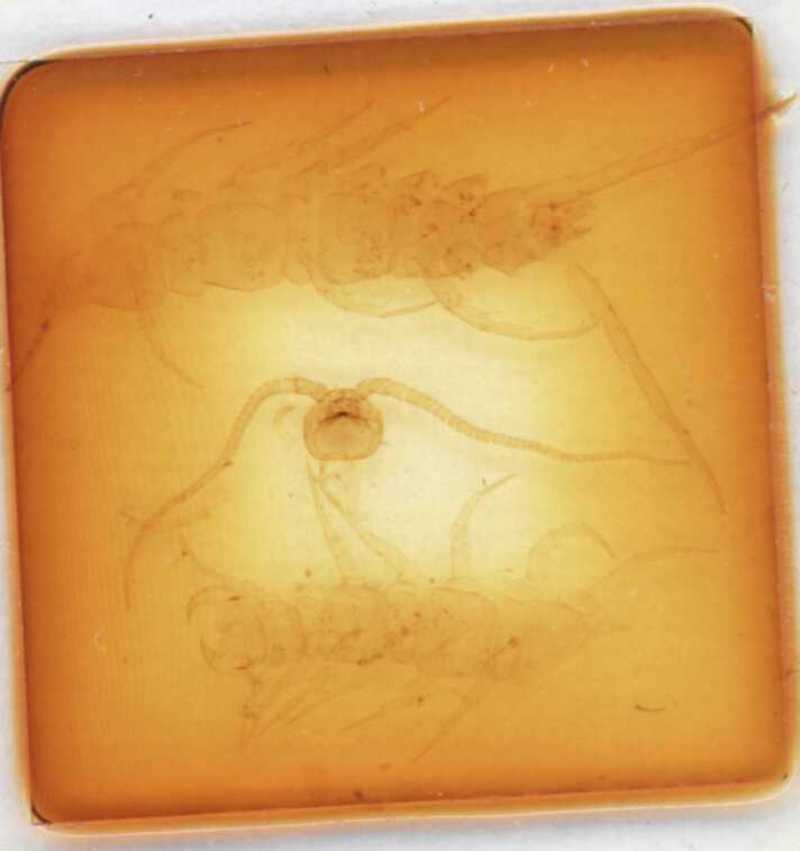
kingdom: Animalia
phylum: Arthropoda
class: Chilopoda
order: Lithobiomorpha
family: Lithobiidae
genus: Lithobius
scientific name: Lithobius muticus
